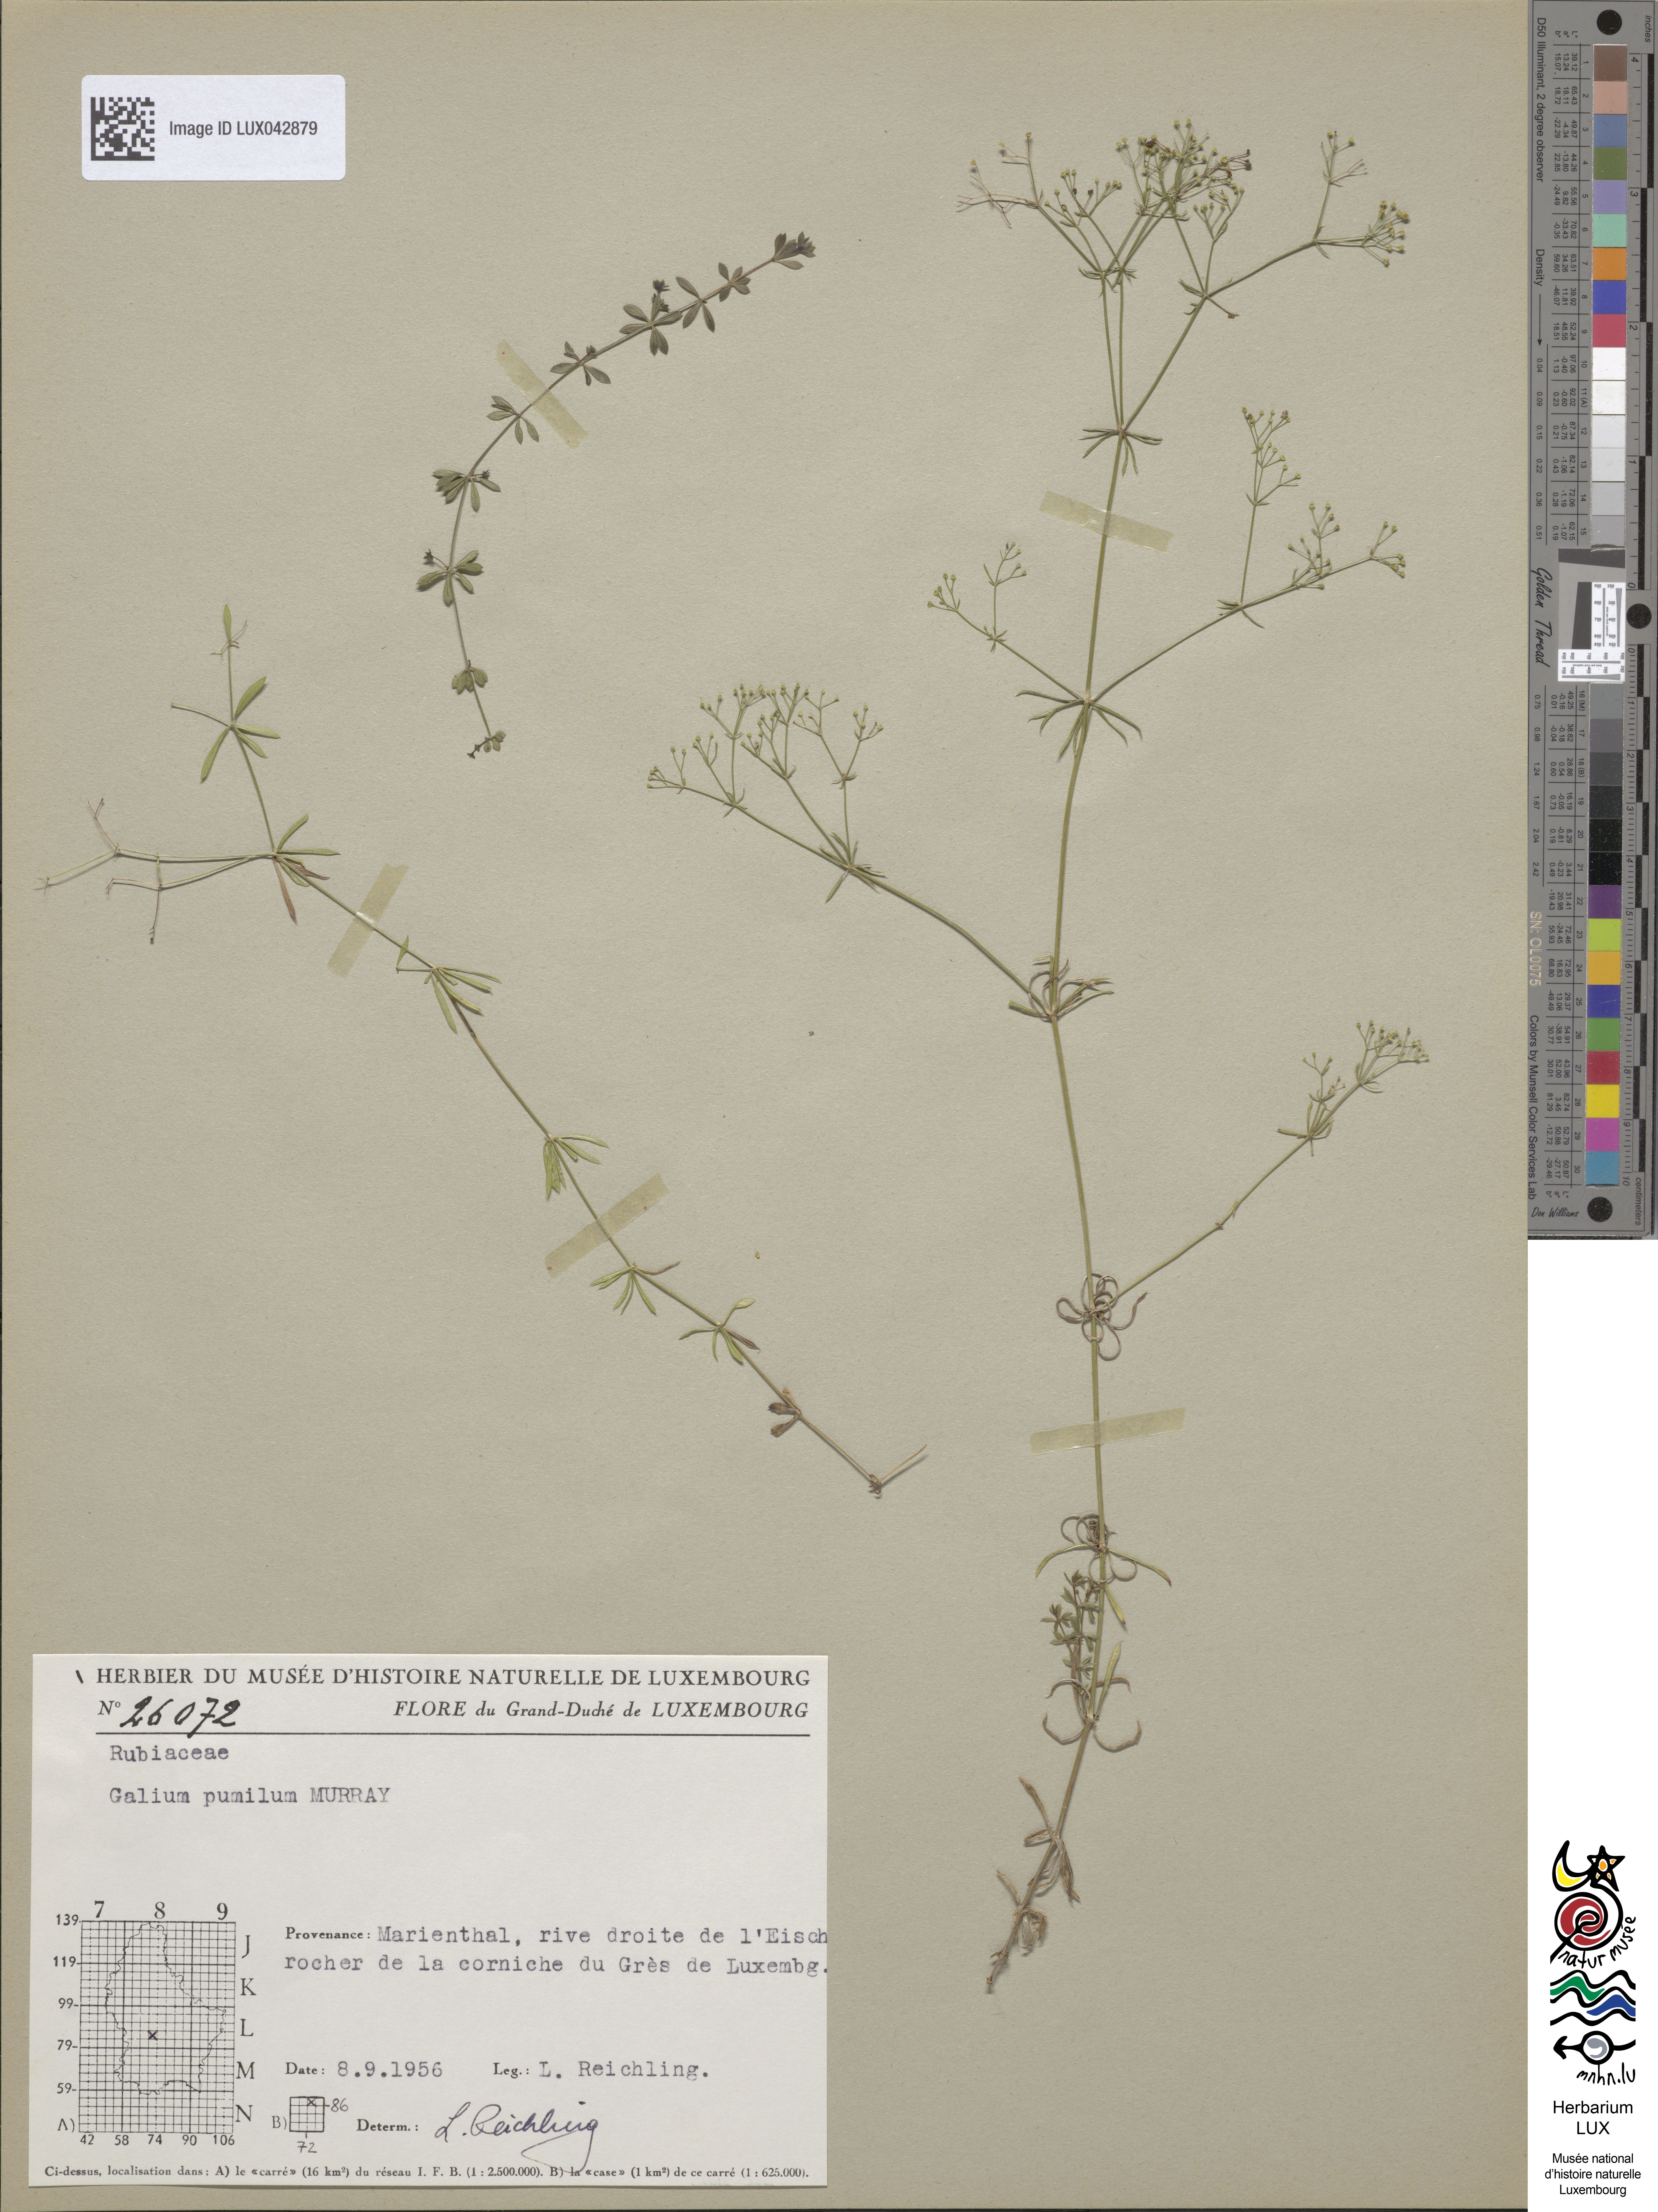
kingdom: Plantae
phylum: Tracheophyta
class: Magnoliopsida
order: Gentianales
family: Rubiaceae
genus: Galium
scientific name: Galium pumilum
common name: Slender bedstraw
